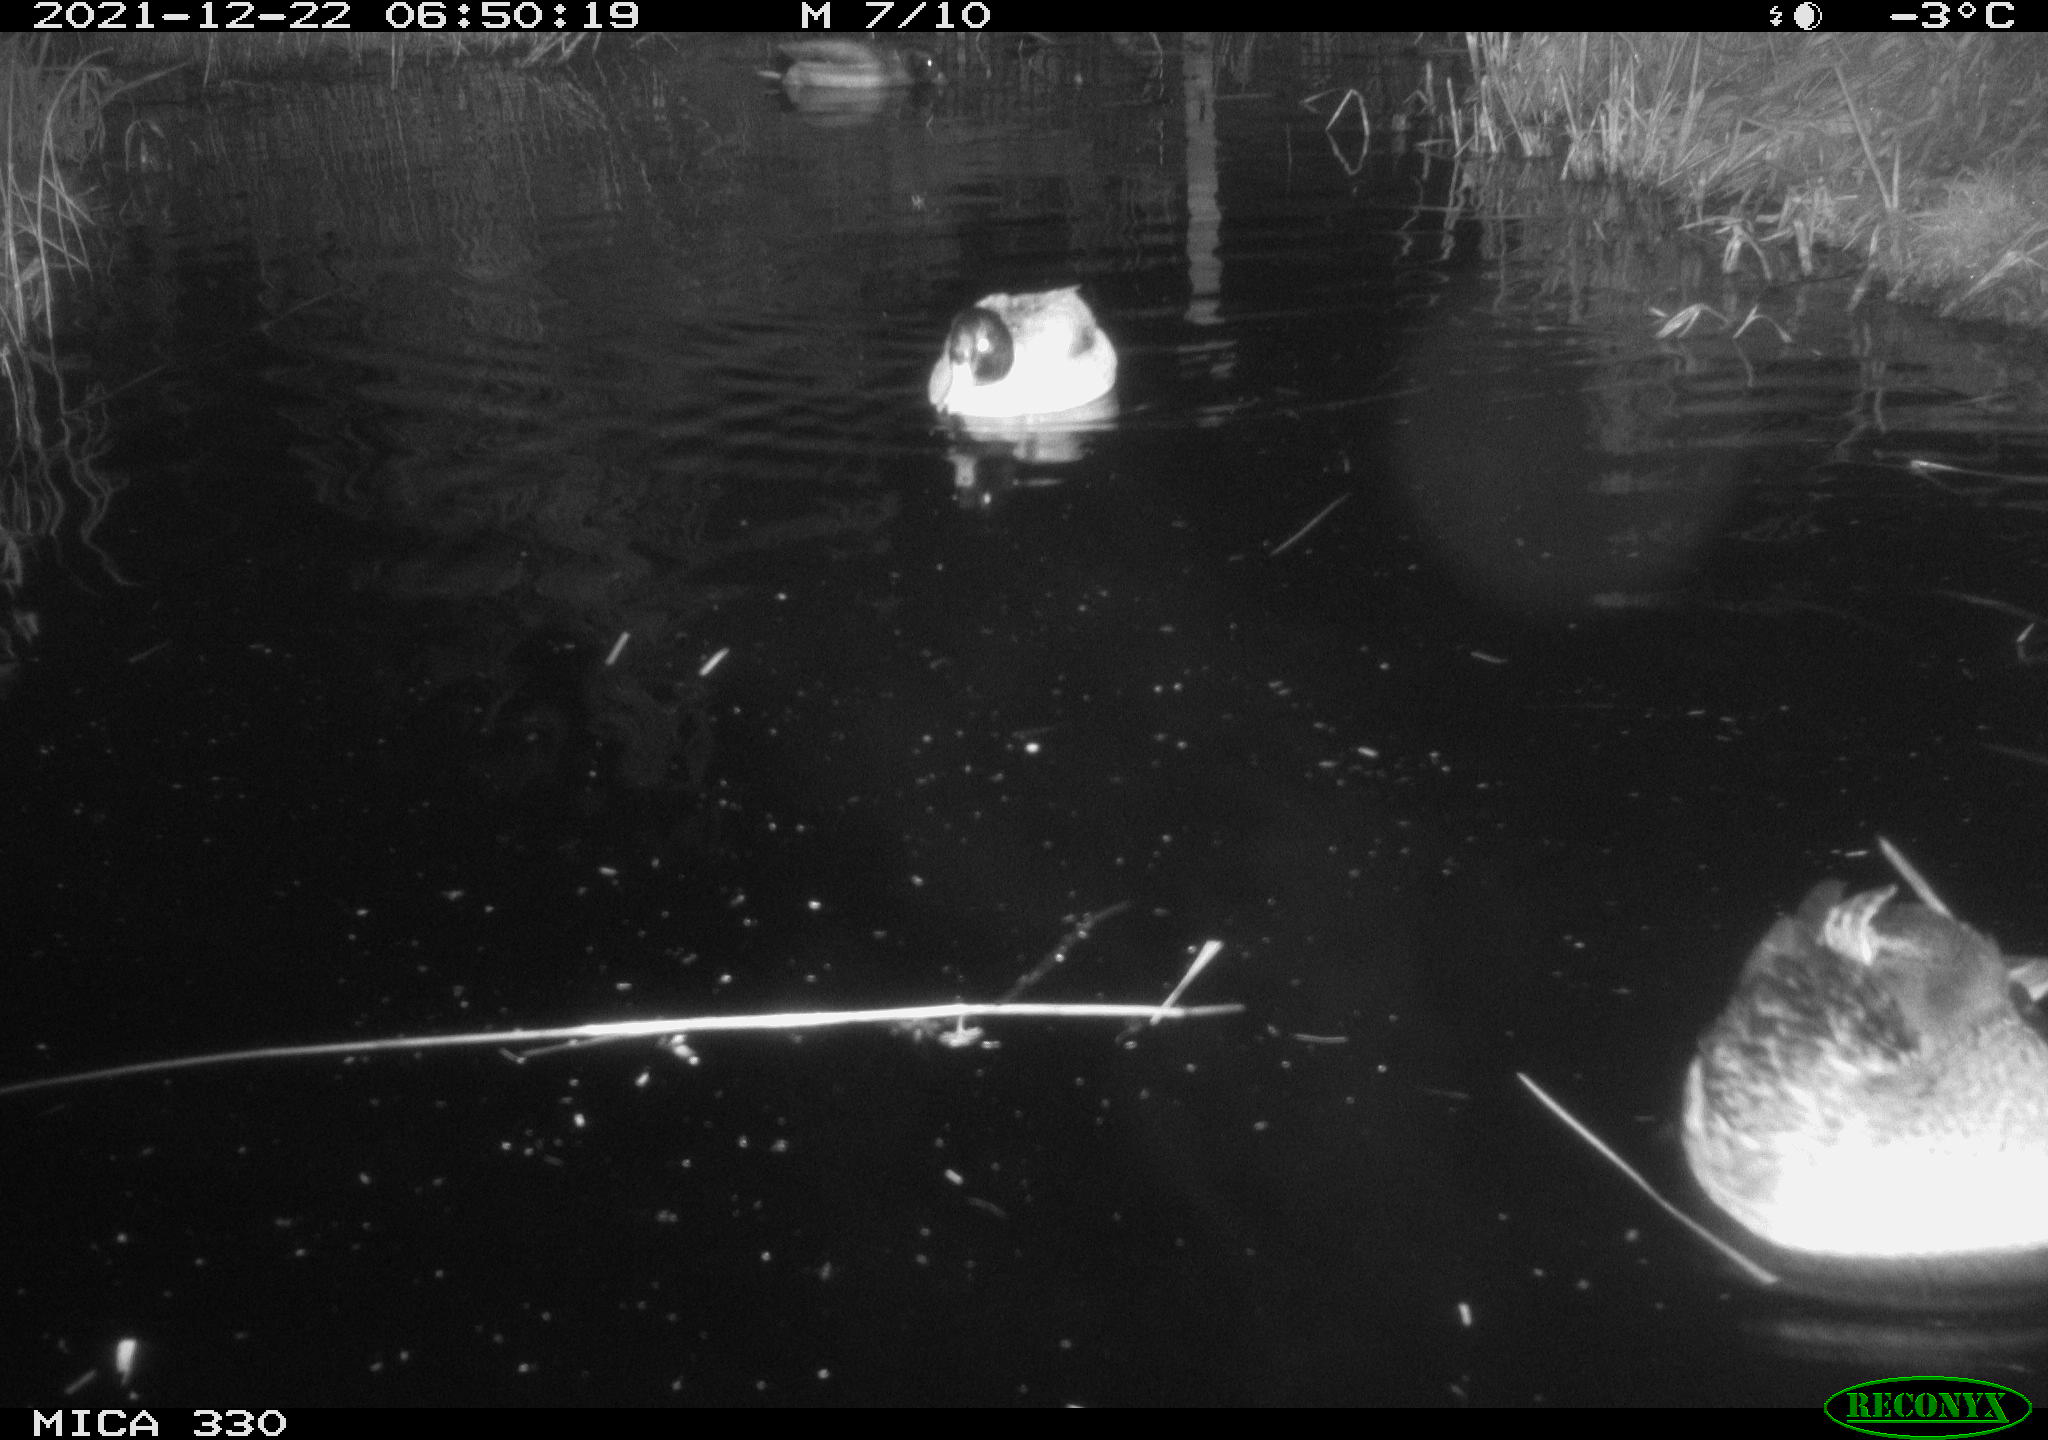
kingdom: Animalia
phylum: Chordata
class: Aves
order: Anseriformes
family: Anatidae
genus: Anas
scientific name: Anas platyrhynchos
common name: Mallard
